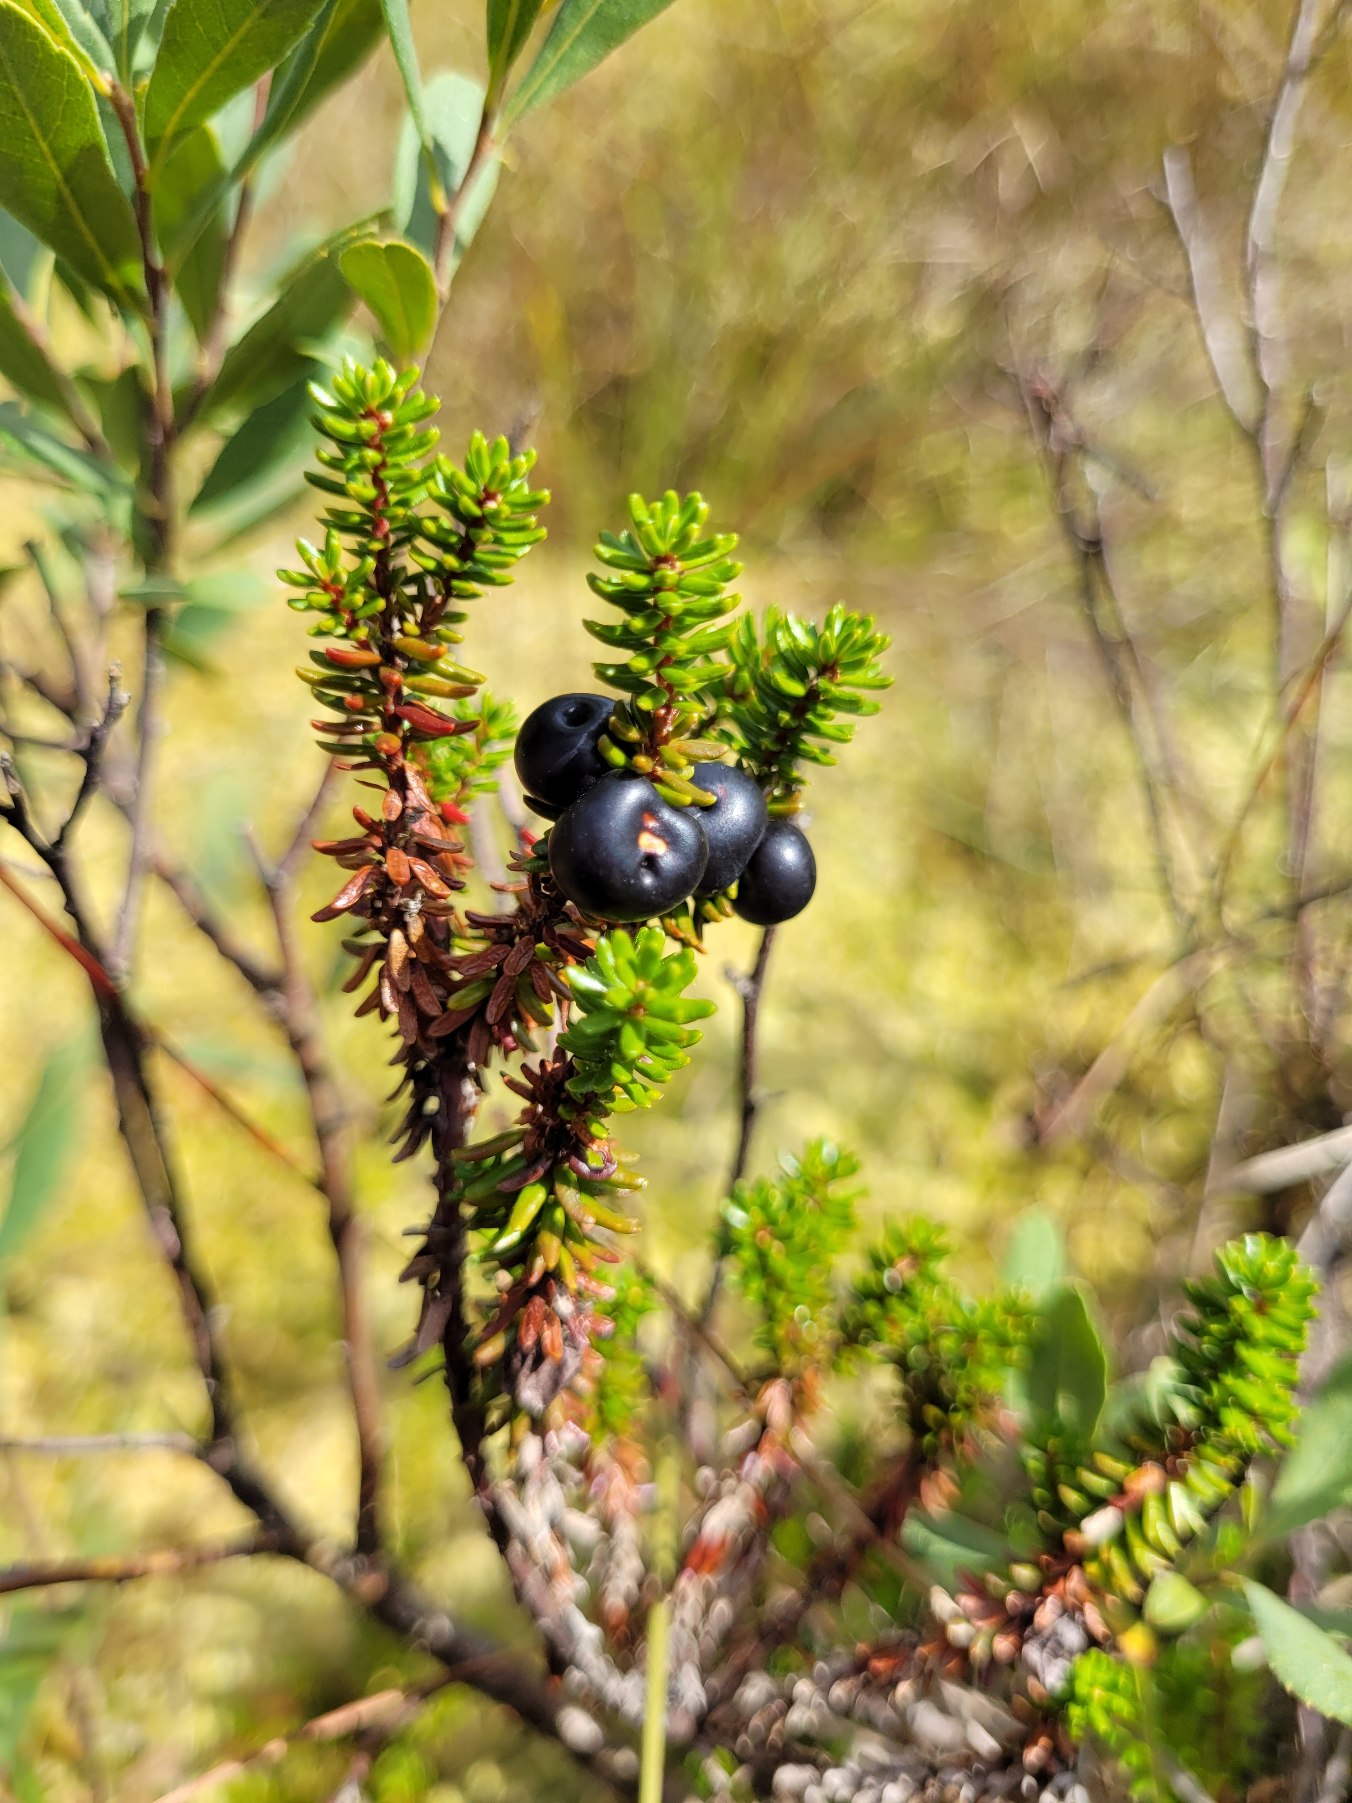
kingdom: Plantae
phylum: Tracheophyta
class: Magnoliopsida
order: Ericales
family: Ericaceae
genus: Empetrum
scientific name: Empetrum nigrum
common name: Revling
